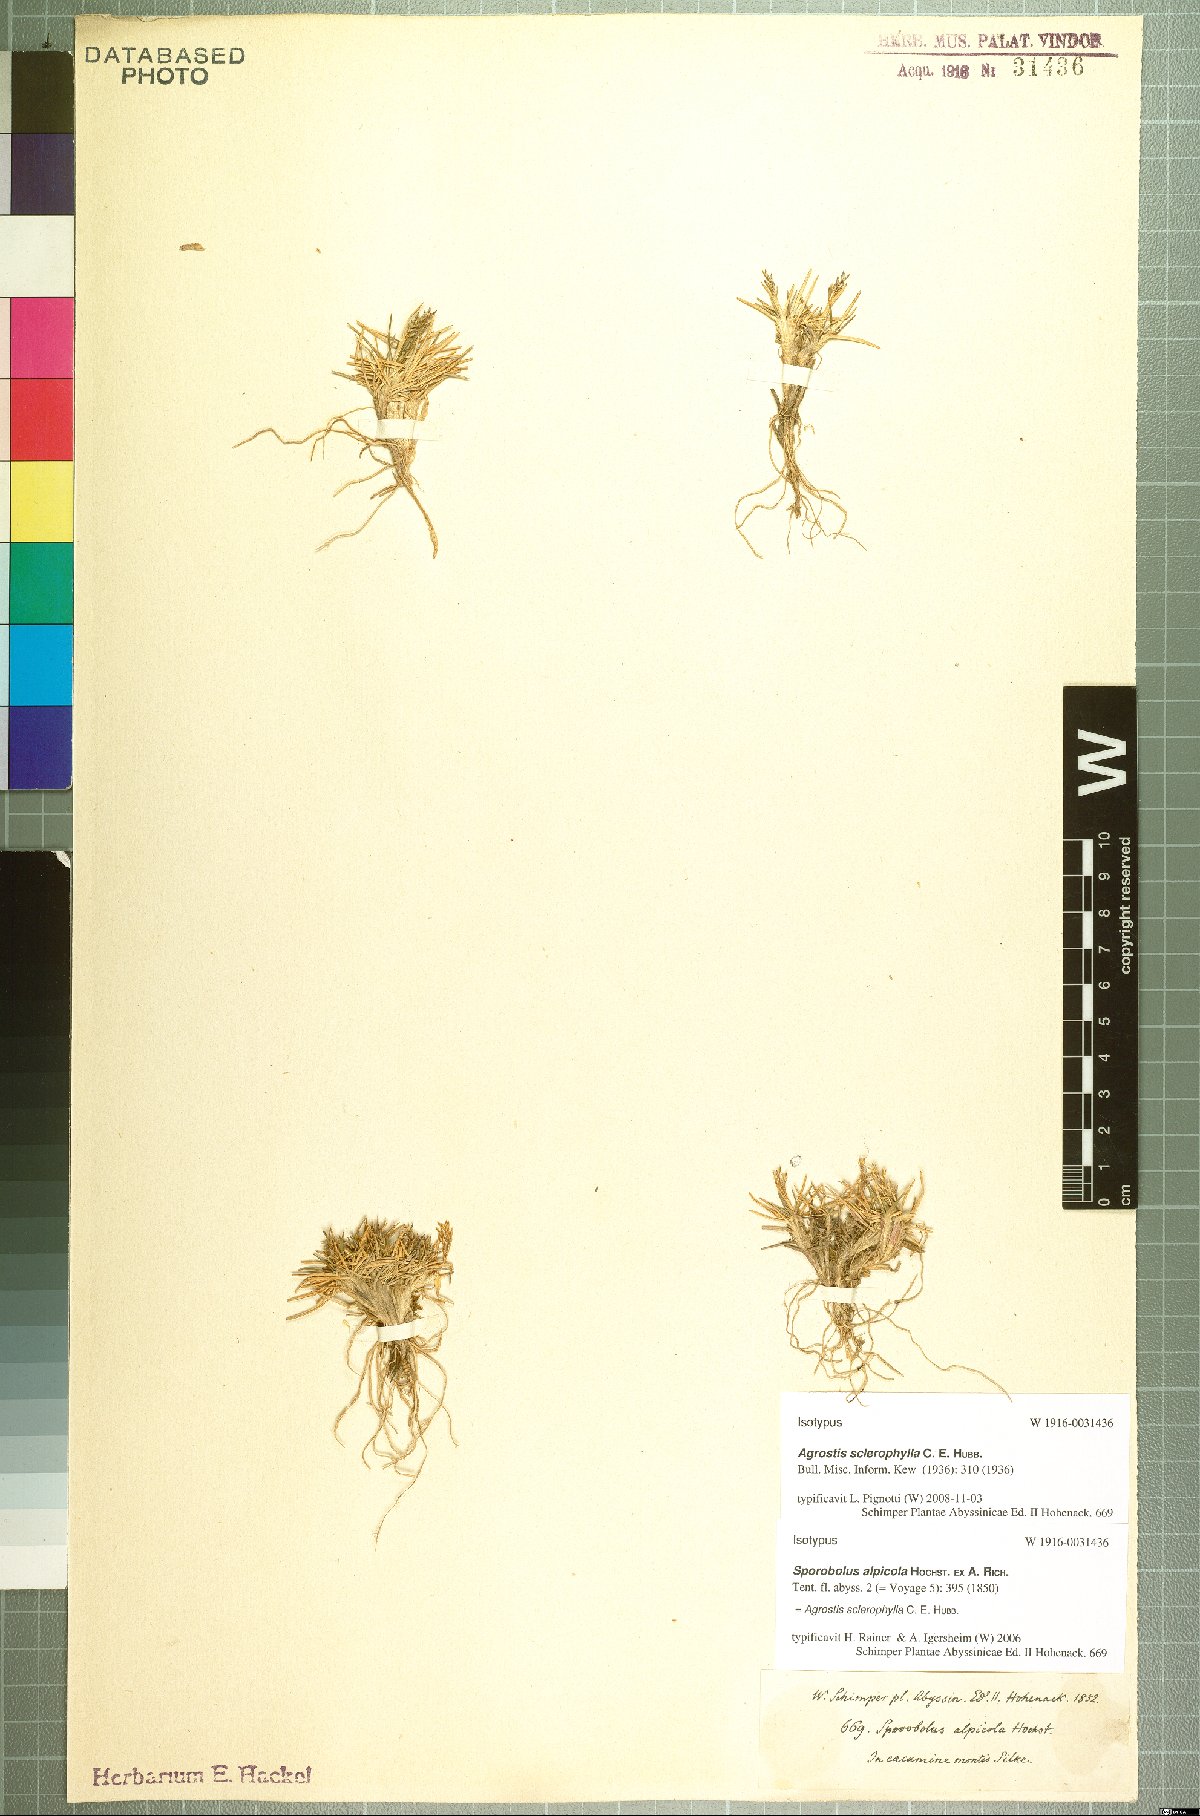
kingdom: Plantae
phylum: Tracheophyta
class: Liliopsida
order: Poales
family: Poaceae
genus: Agrostis
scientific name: Agrostis sclerophylla
